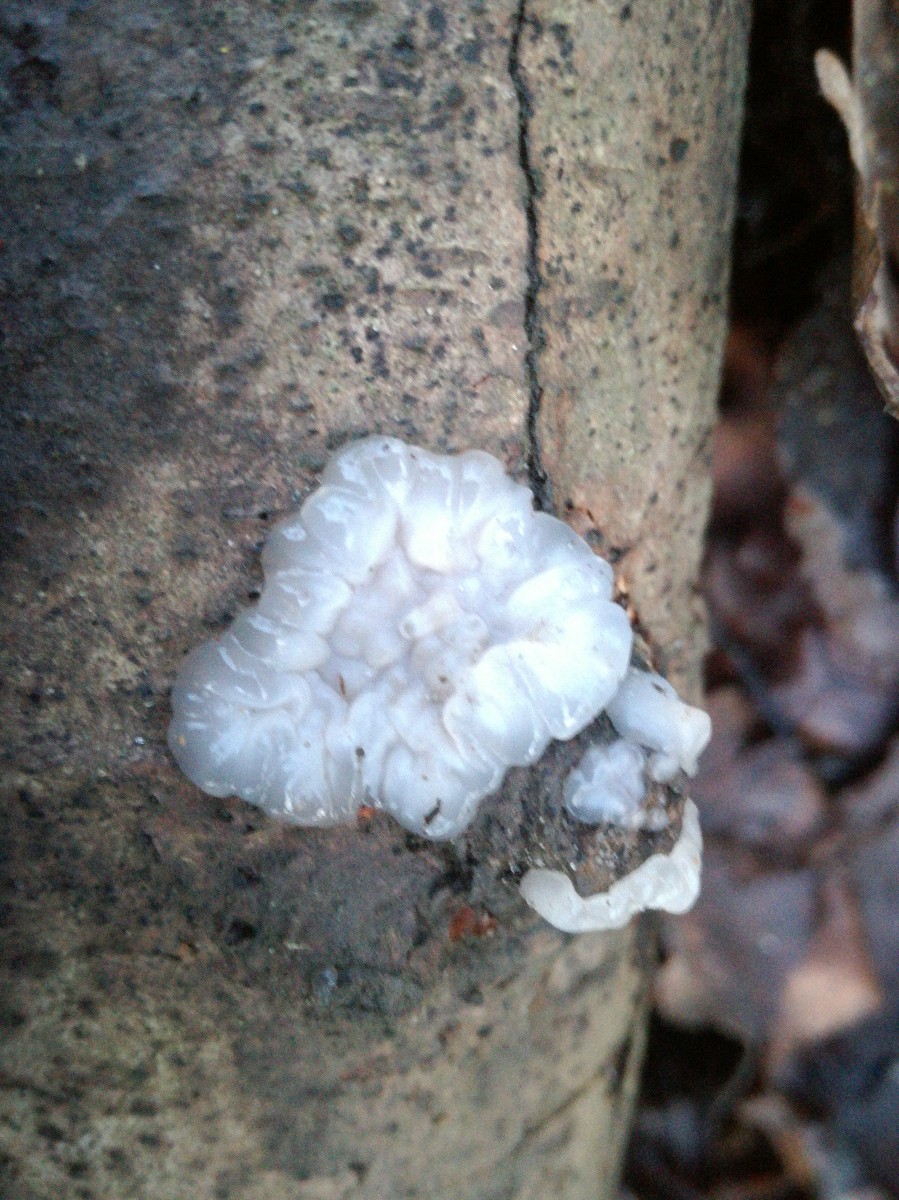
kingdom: Fungi
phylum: Basidiomycota
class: Agaricomycetes
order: Auriculariales
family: Auriculariaceae
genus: Exidia
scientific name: Exidia thuretiana
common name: hvidlig bævretop
